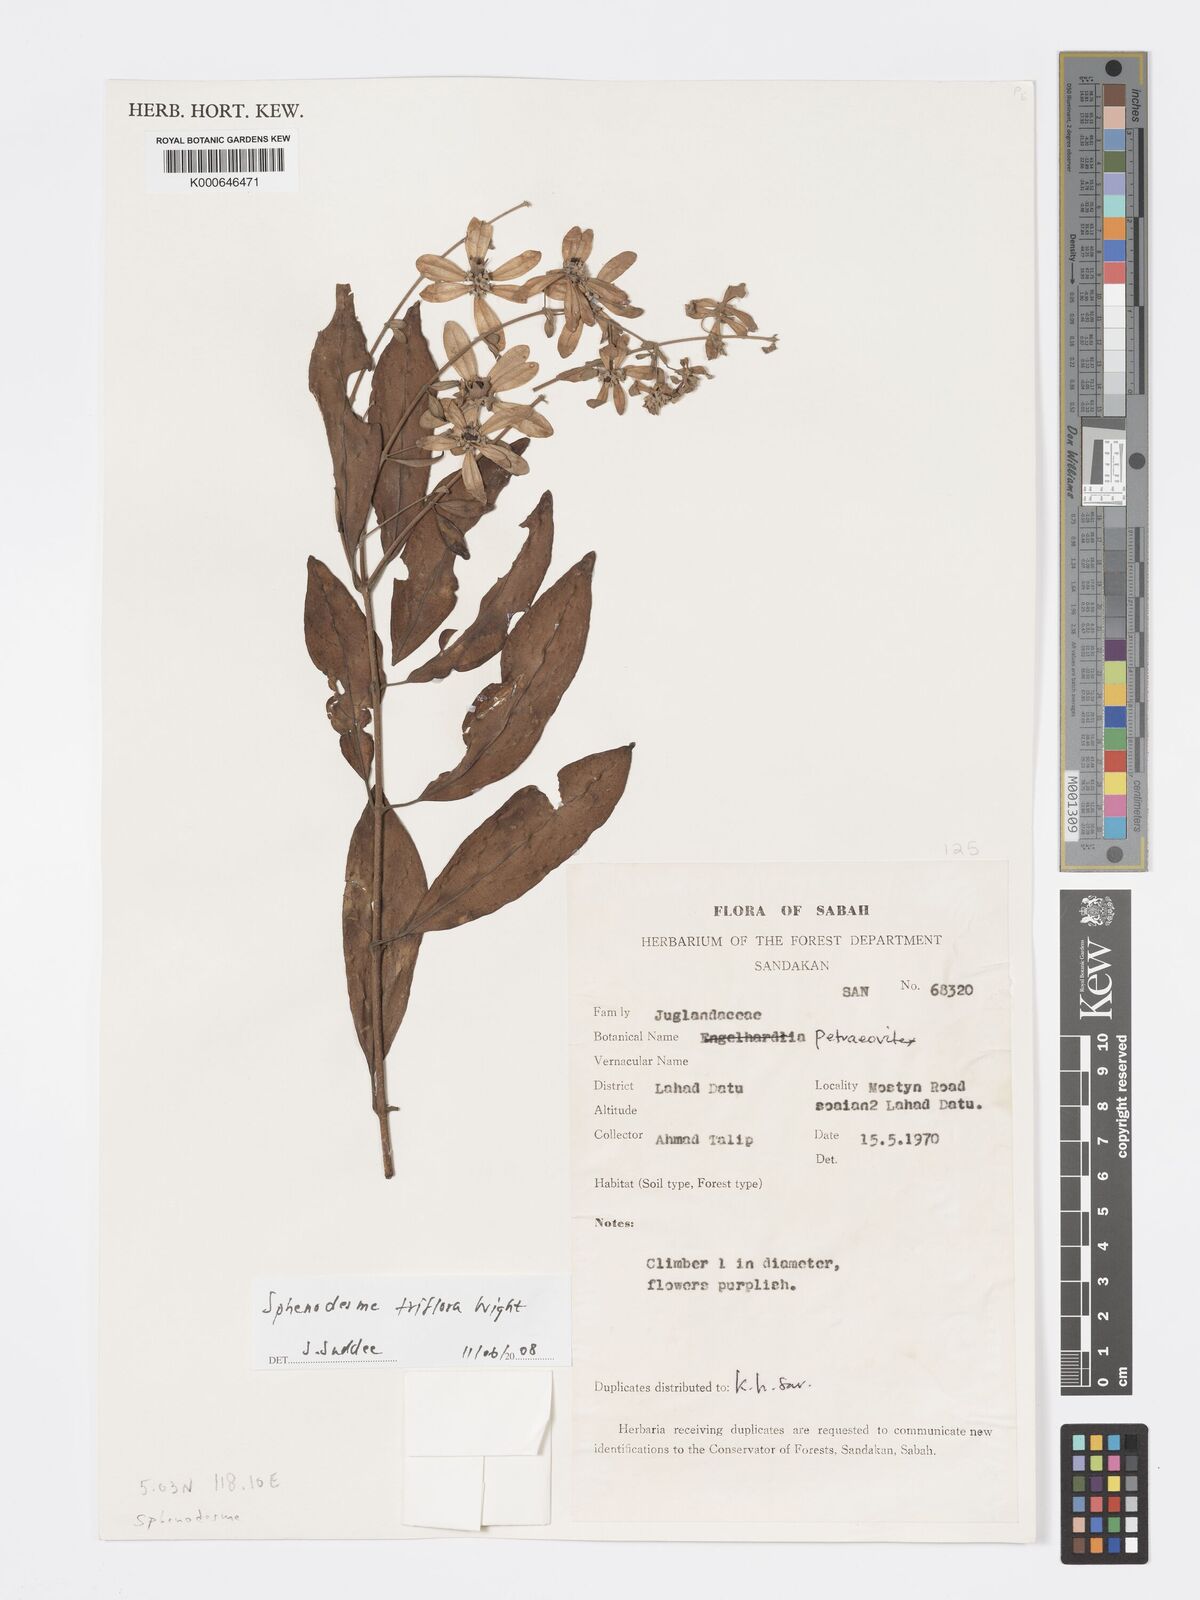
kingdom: Plantae
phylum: Tracheophyta
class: Magnoliopsida
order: Lamiales
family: Lamiaceae
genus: Sphenodesme
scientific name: Sphenodesme triflora
